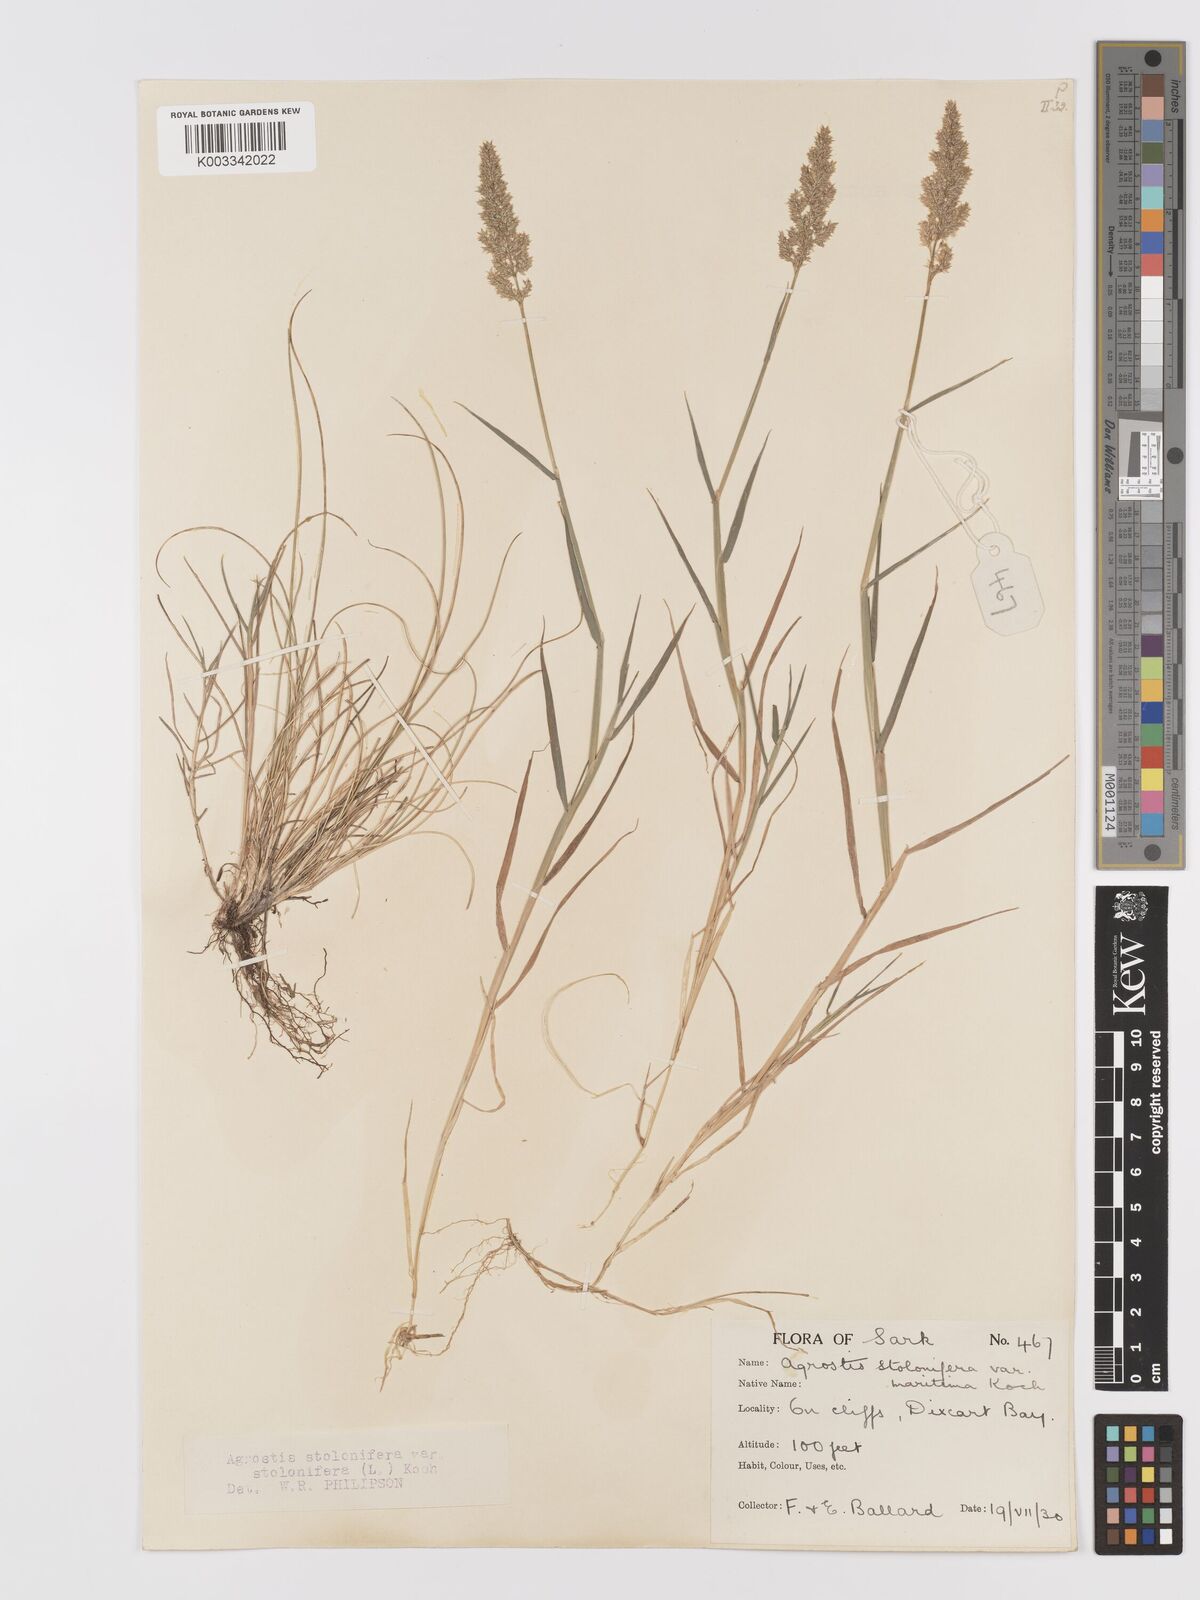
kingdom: Plantae
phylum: Tracheophyta
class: Liliopsida
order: Poales
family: Poaceae
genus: Agrostis
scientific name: Agrostis stolonifera
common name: Creeping bentgrass
